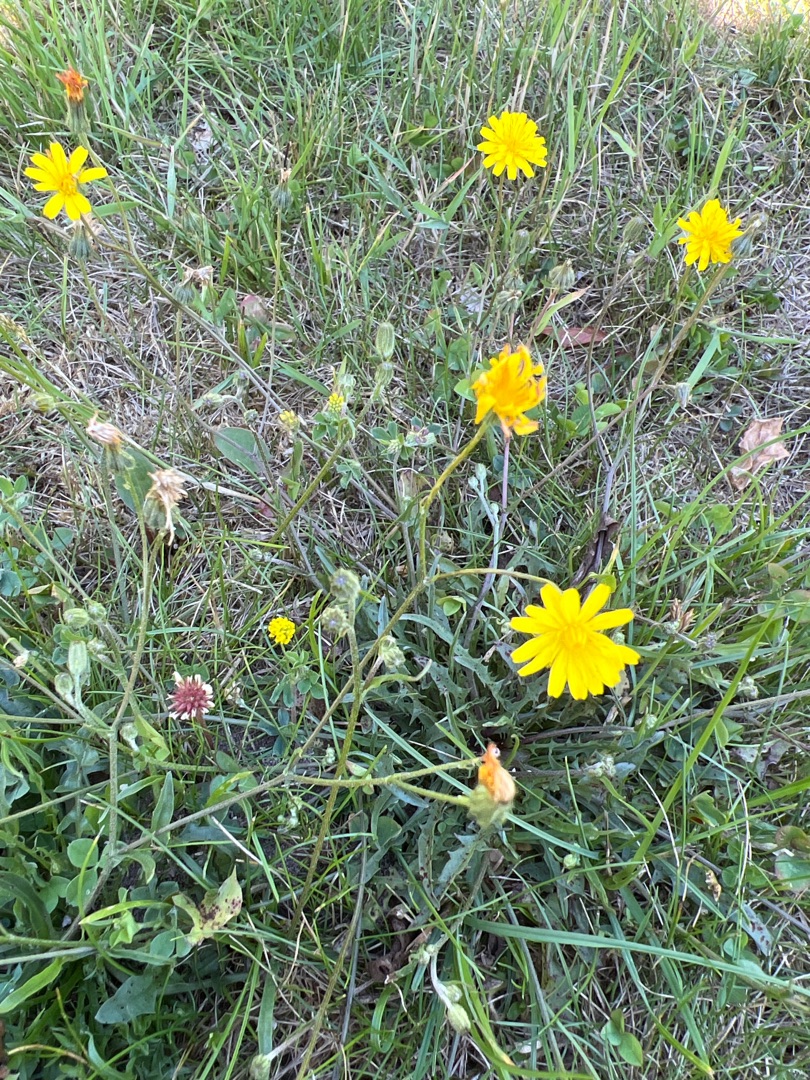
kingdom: Plantae
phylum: Tracheophyta
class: Magnoliopsida
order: Asterales
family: Asteraceae
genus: Crepis
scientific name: Crepis capillaris
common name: Grøn høgeskæg
